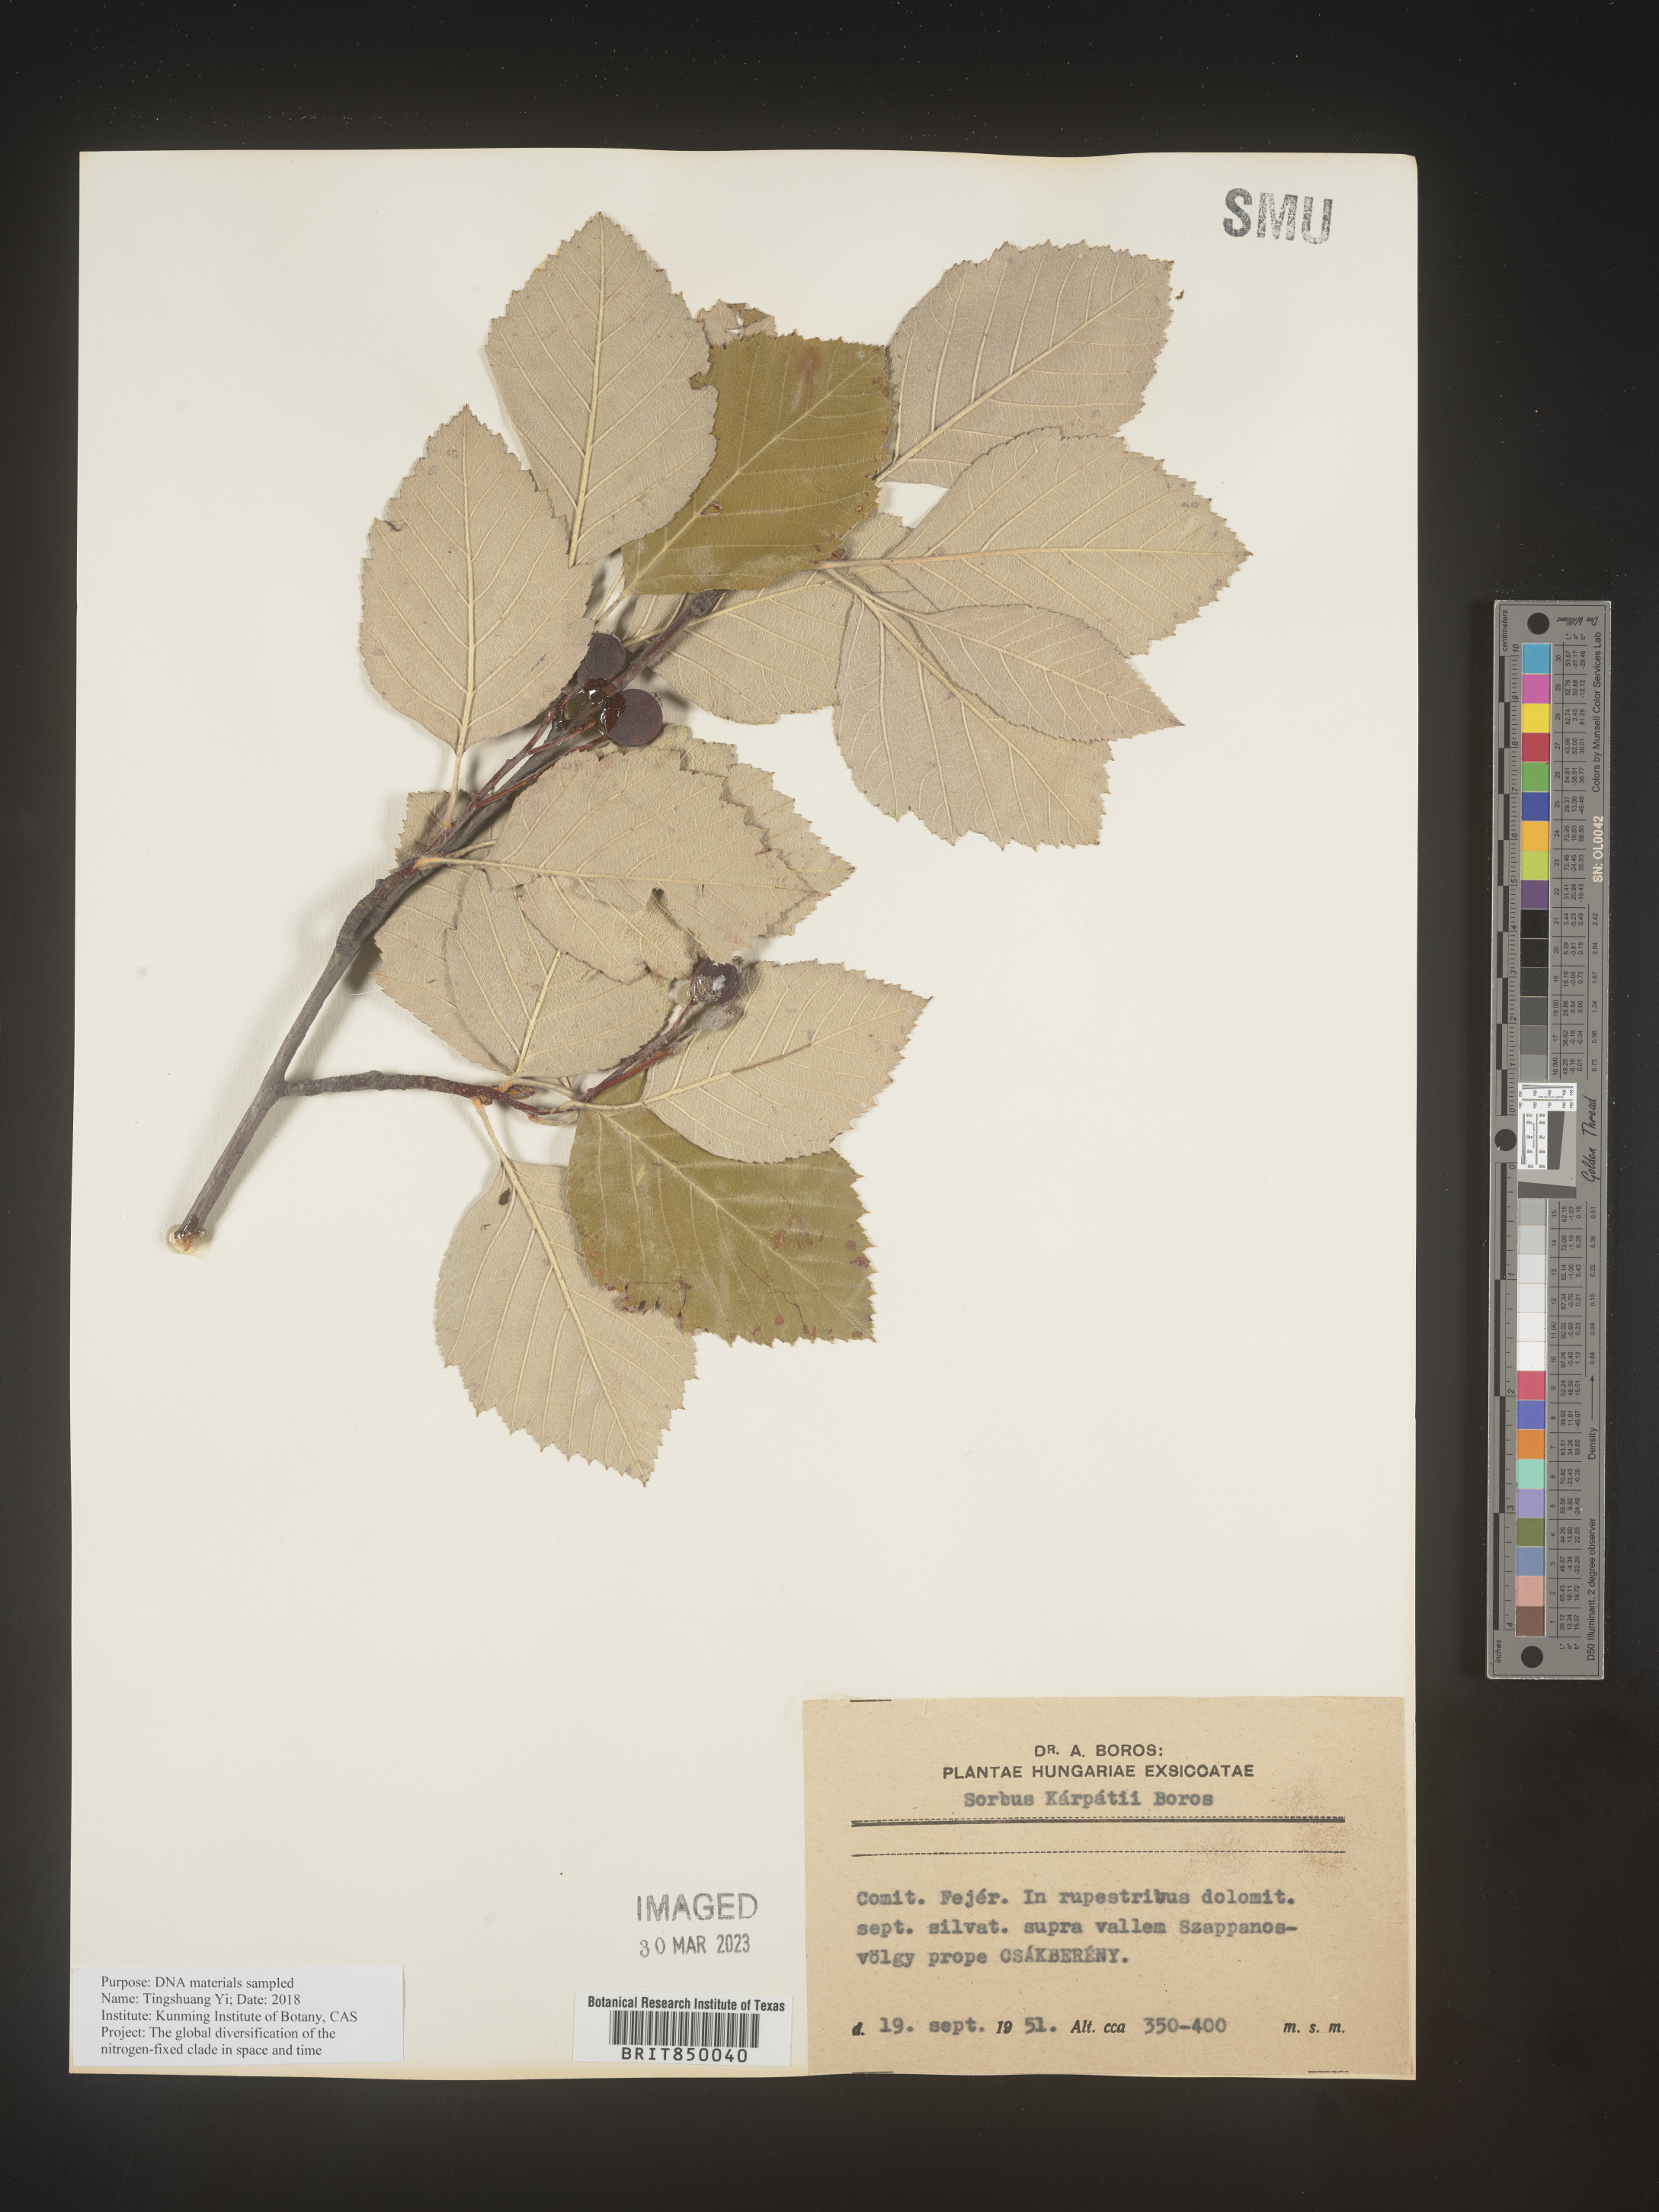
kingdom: Plantae
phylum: Tracheophyta
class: Magnoliopsida
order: Rosales
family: Rosaceae
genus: Sorbus
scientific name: Sorbus
